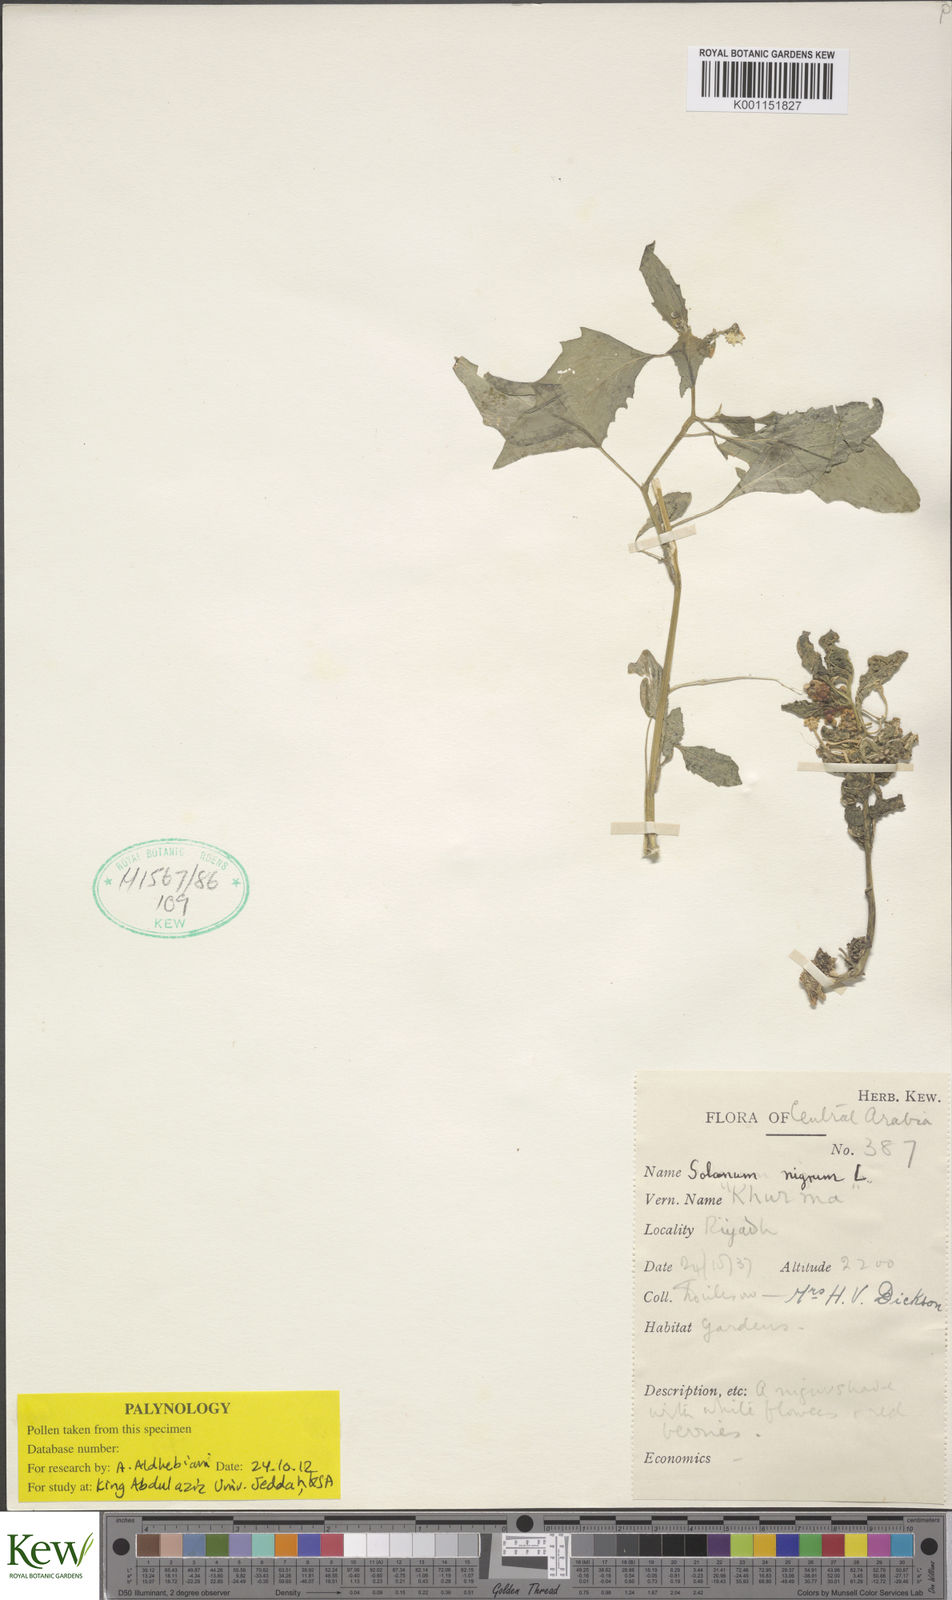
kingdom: Plantae
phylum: Tracheophyta
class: Magnoliopsida
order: Solanales
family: Solanaceae
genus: Solanum
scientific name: Solanum villosum
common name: Red nightshade
